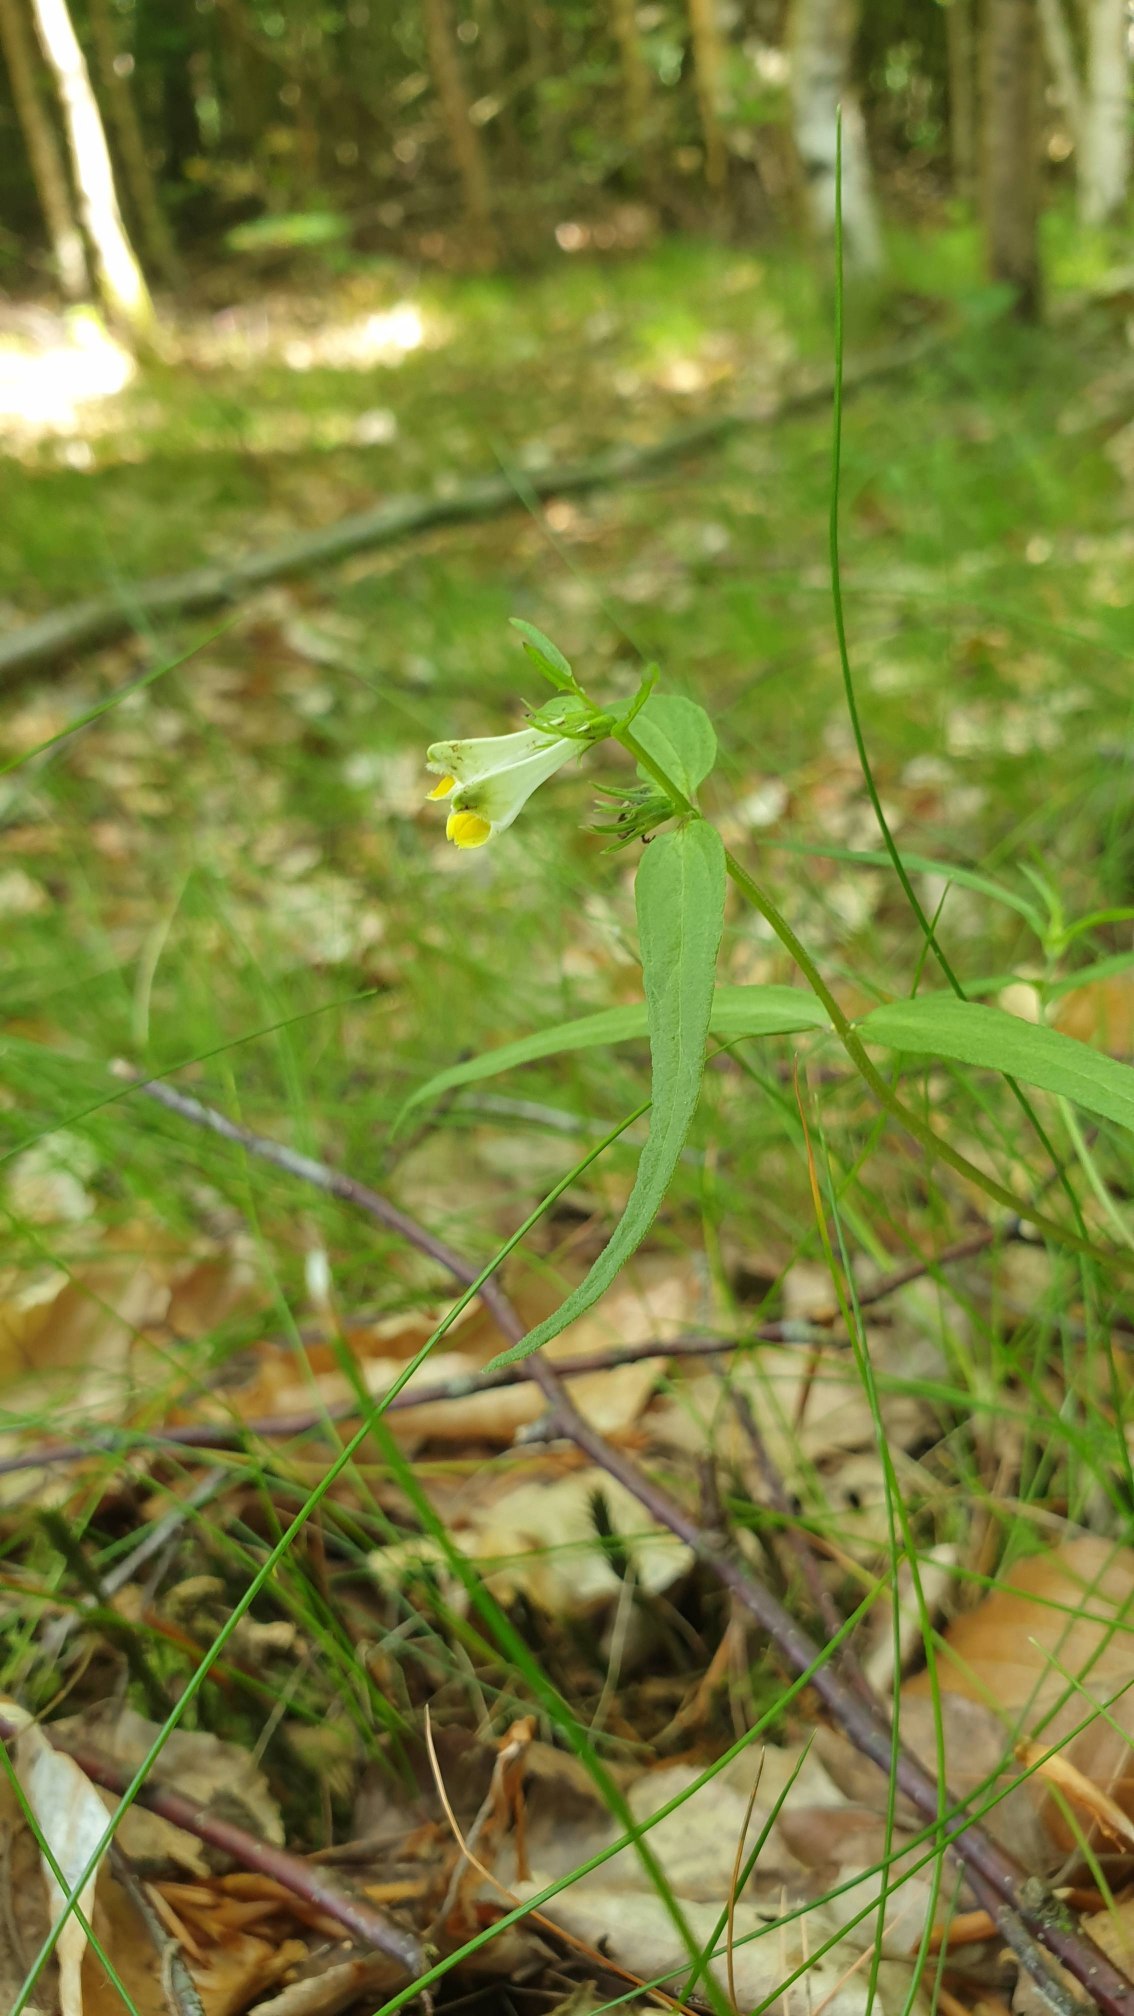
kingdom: Plantae
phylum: Tracheophyta
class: Magnoliopsida
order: Lamiales
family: Orobanchaceae
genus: Melampyrum
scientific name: Melampyrum pratense
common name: Almindelig kohvede
